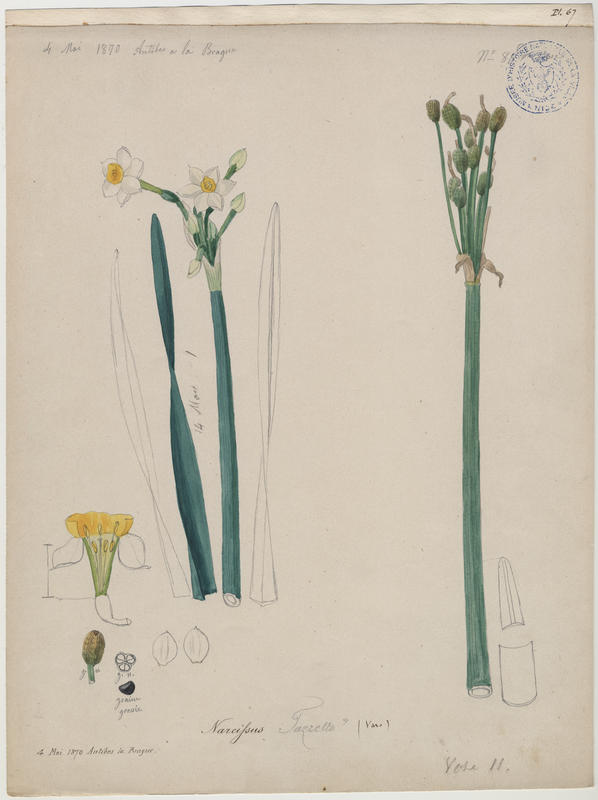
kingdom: Plantae
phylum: Tracheophyta
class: Liliopsida
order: Asparagales
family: Amaryllidaceae
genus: Narcissus
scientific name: Narcissus tazetta
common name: Bunch-flowered daffodil
